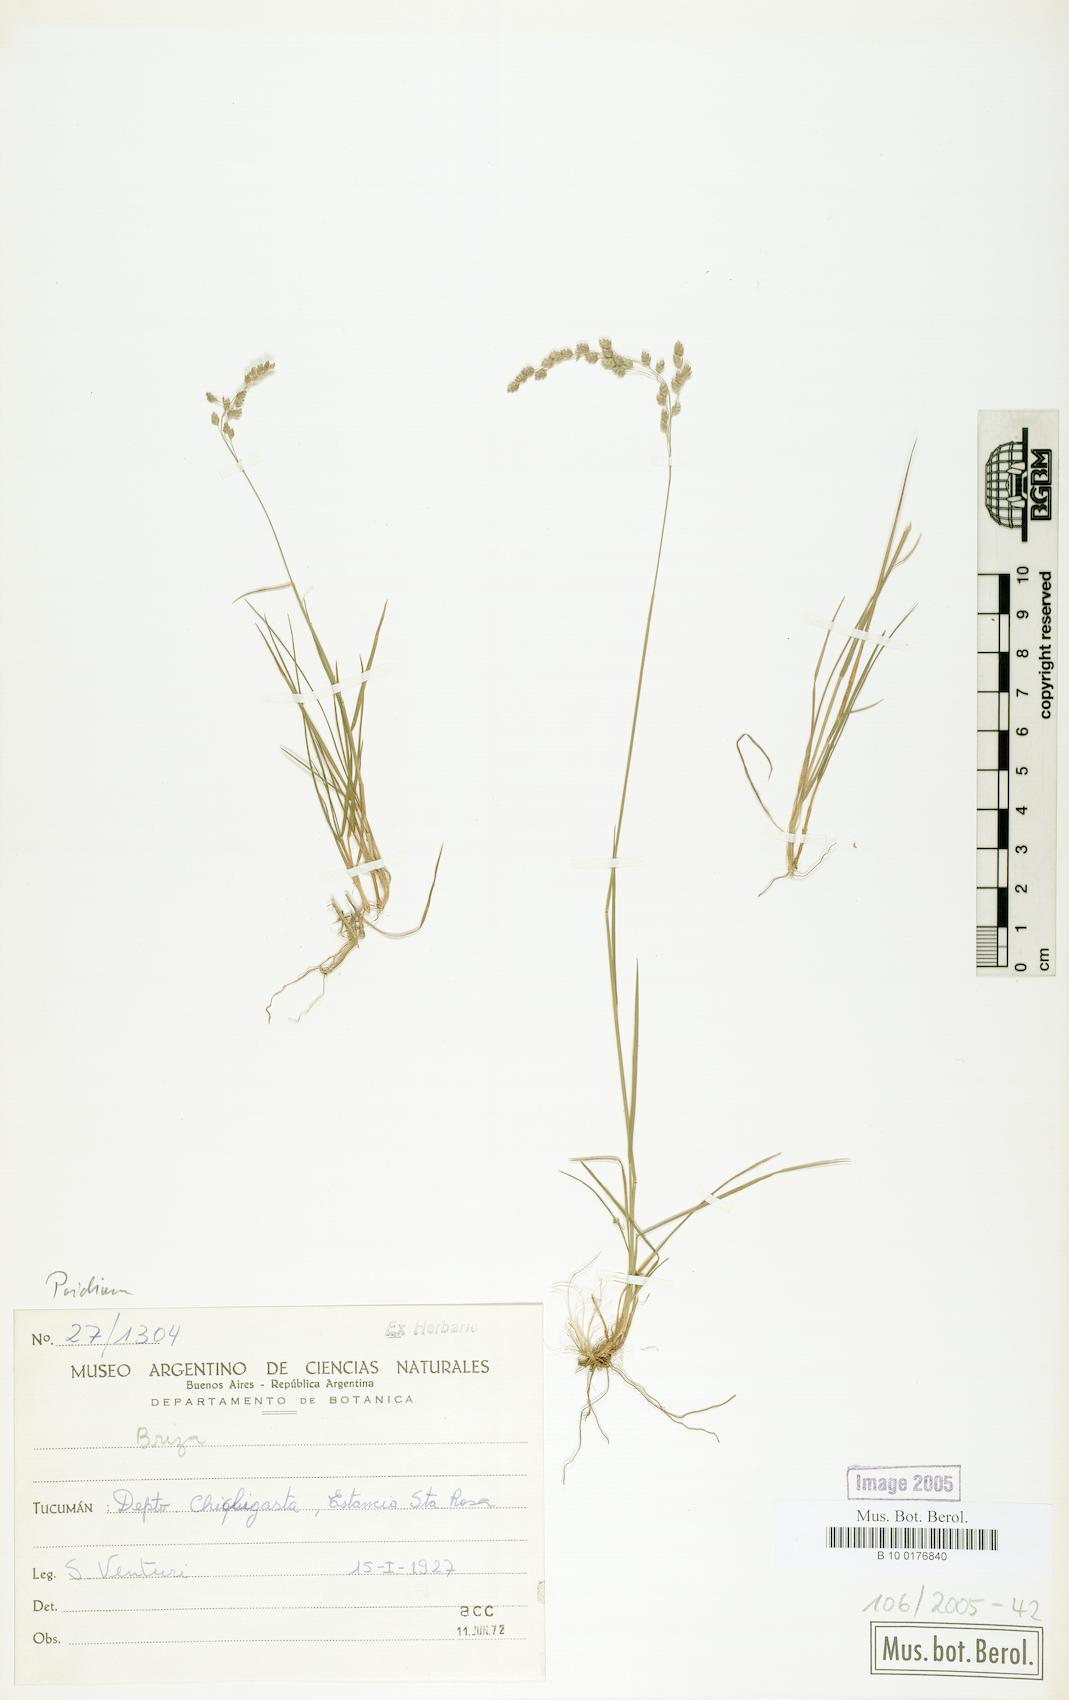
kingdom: Plantae
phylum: Tracheophyta
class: Liliopsida
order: Poales
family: Poaceae
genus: Poidium
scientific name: Poidium
